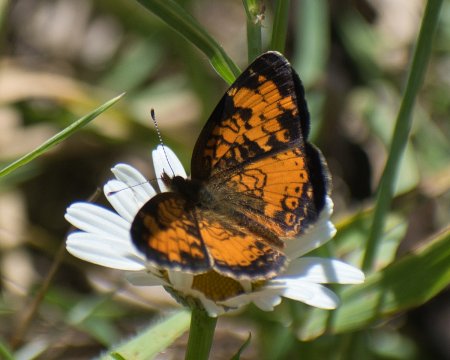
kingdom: Animalia
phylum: Arthropoda
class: Insecta
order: Lepidoptera
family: Nymphalidae
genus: Phyciodes
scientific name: Phyciodes tharos
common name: Northern Crescent
